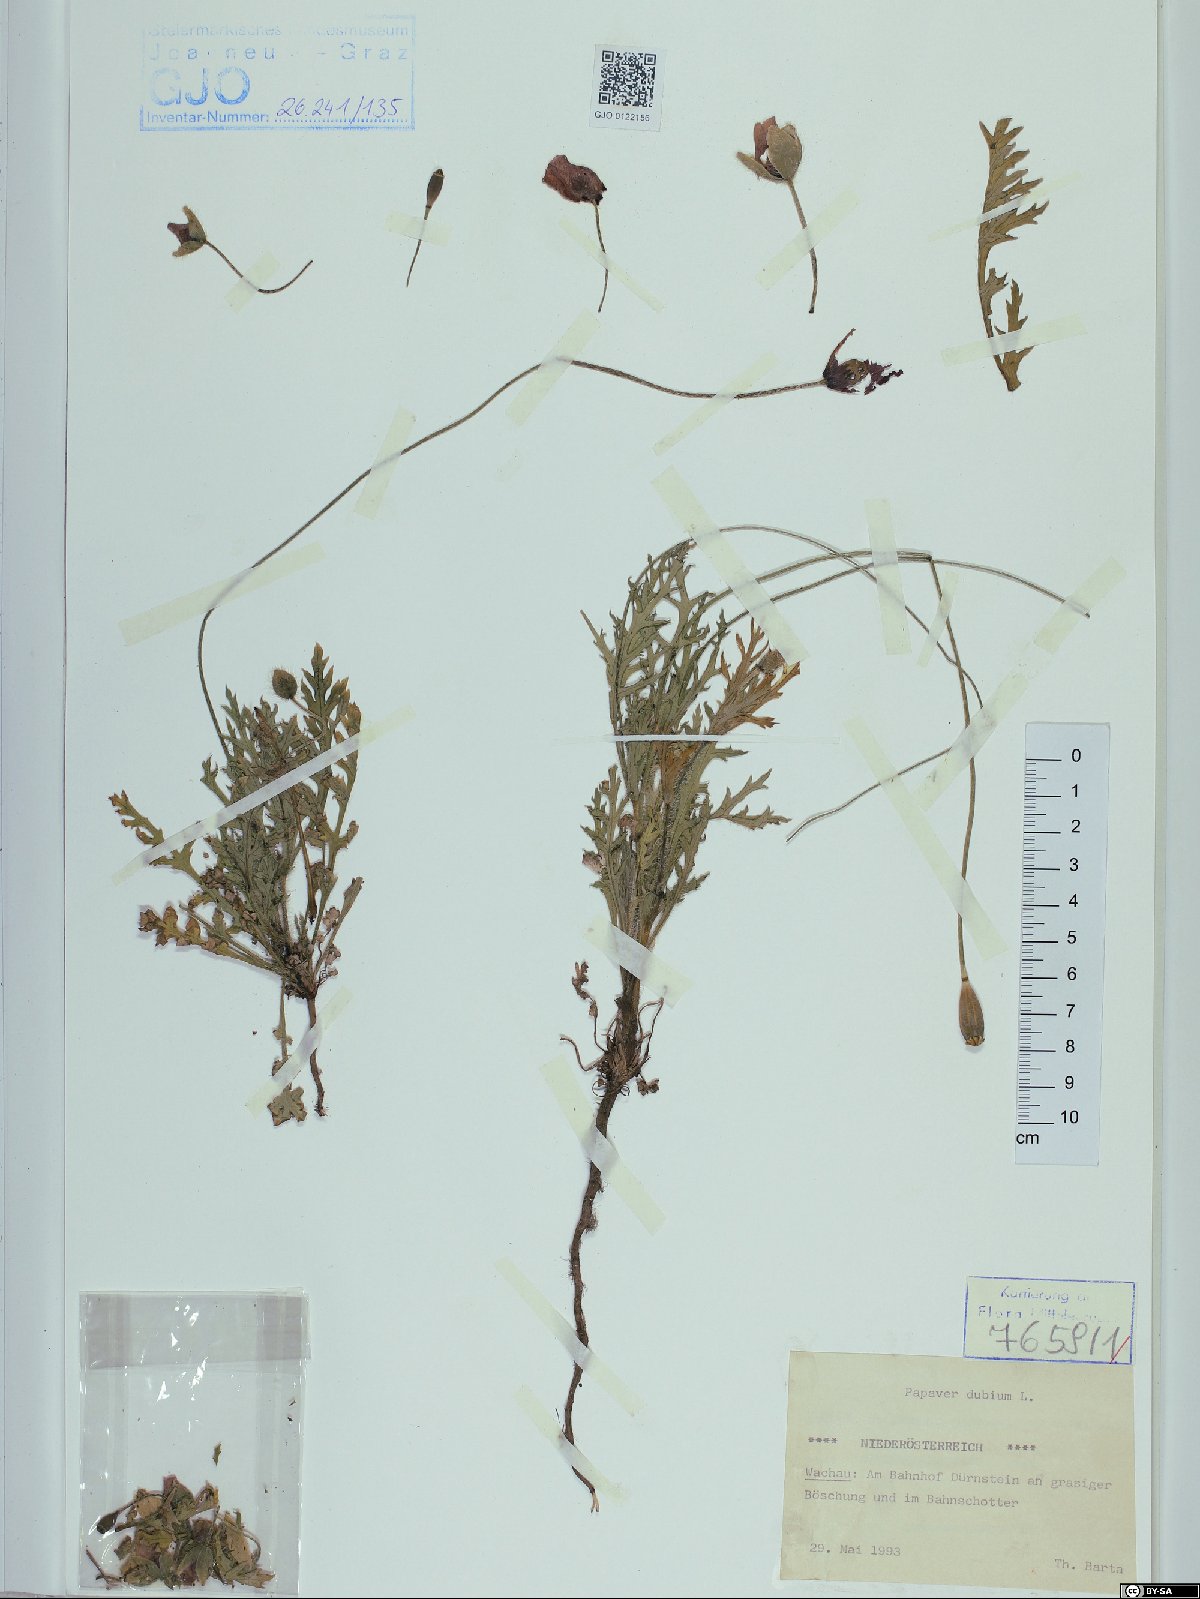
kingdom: Plantae
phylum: Tracheophyta
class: Magnoliopsida
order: Ranunculales
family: Papaveraceae
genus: Papaver
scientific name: Papaver dubium
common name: Long-headed poppy
